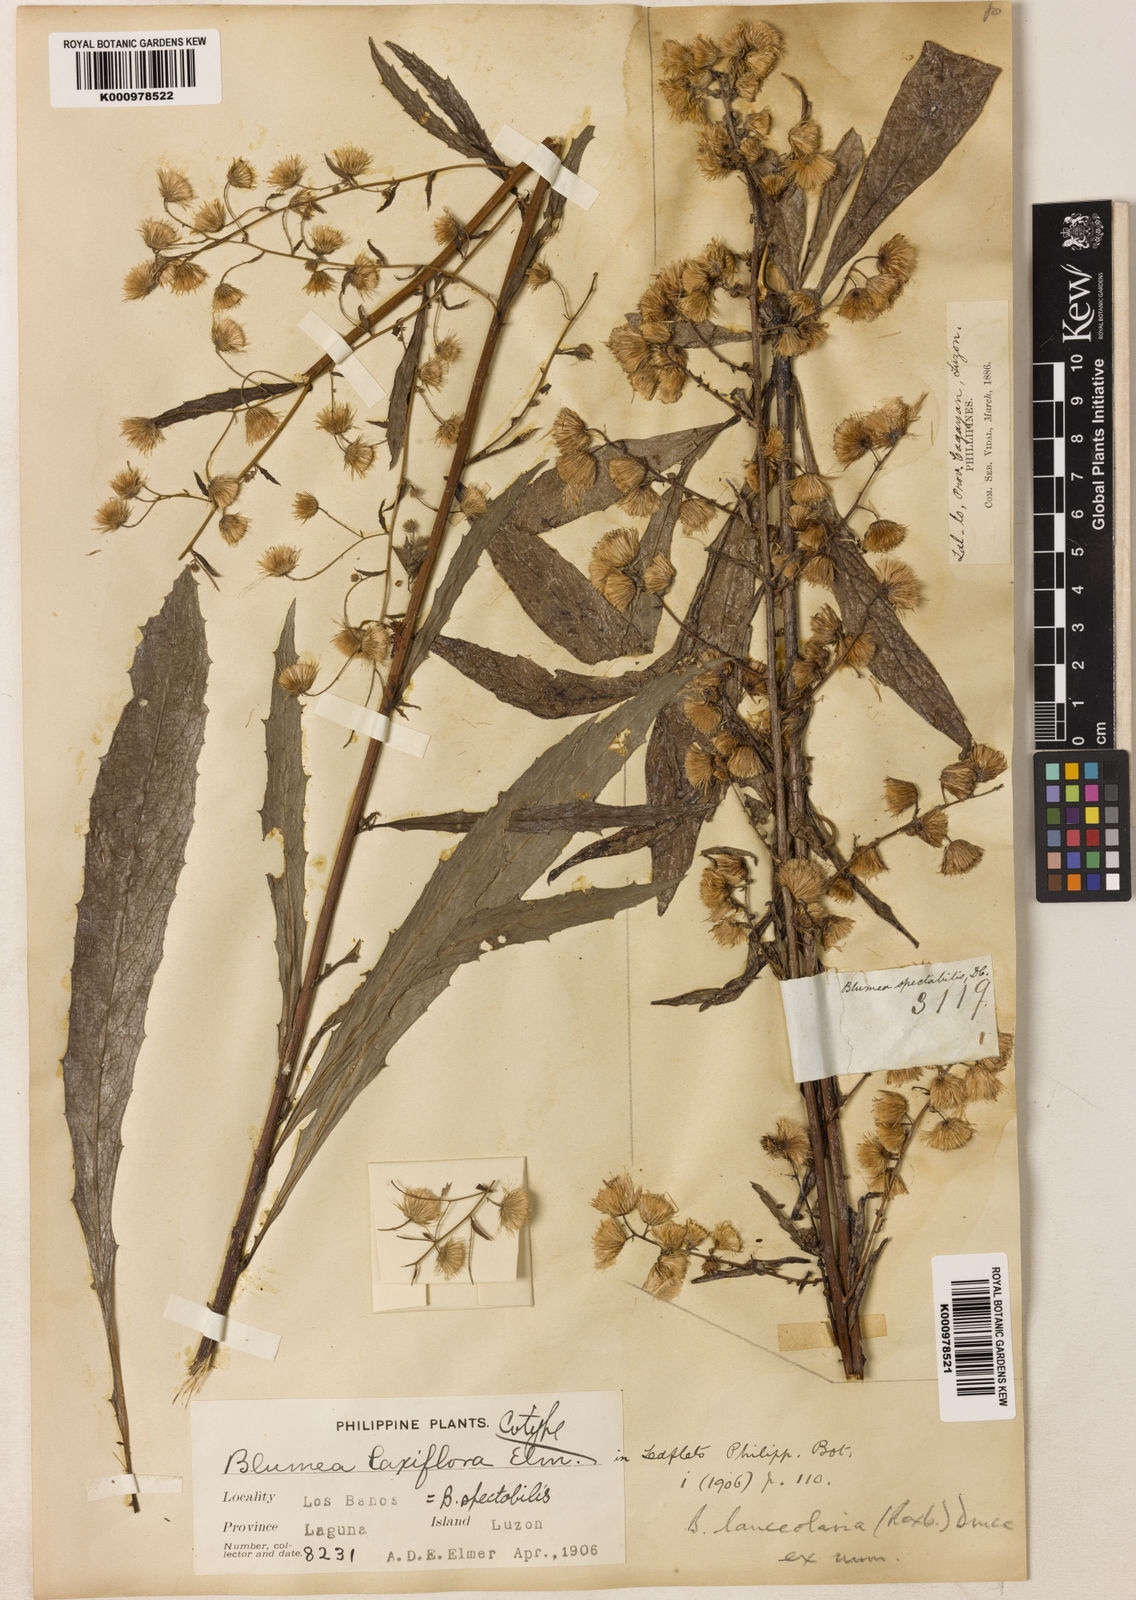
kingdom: Plantae
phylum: Tracheophyta
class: Magnoliopsida
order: Asterales
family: Asteraceae
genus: Blumea
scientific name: Blumea lanceolaria
